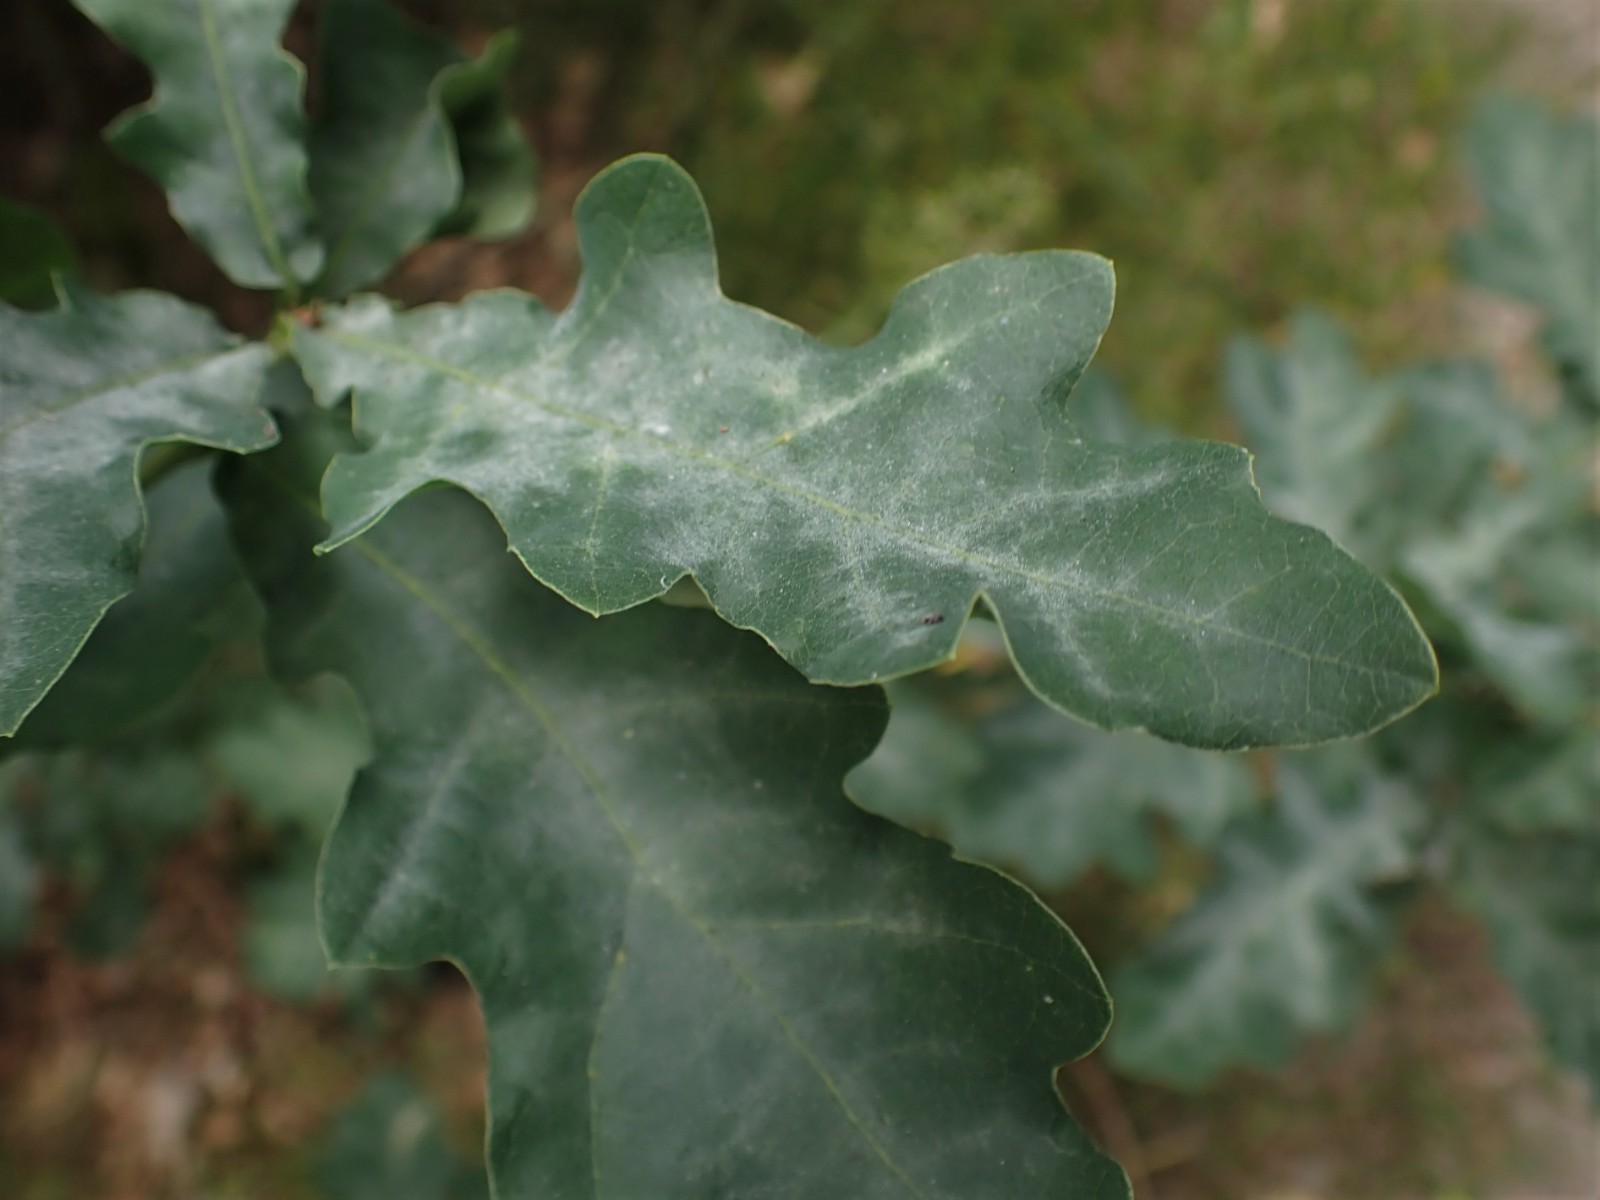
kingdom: Fungi
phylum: Ascomycota
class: Leotiomycetes
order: Helotiales
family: Erysiphaceae
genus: Erysiphe
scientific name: Erysiphe alphitoides
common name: ege-meldug
